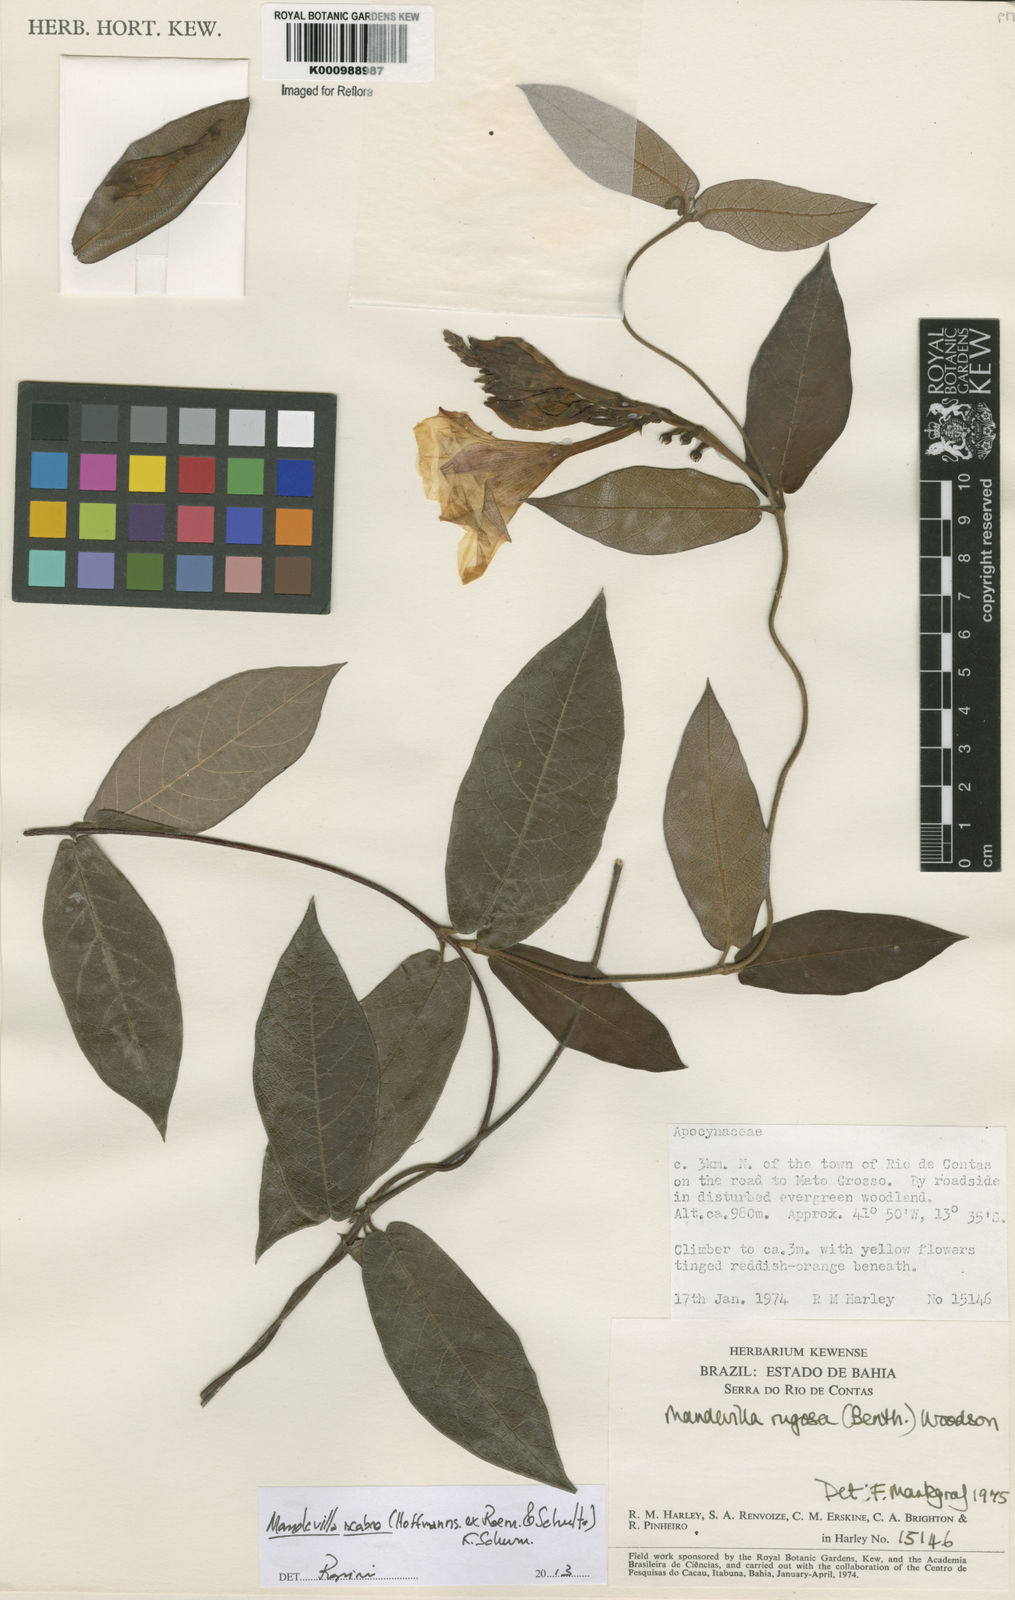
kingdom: Plantae
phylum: Tracheophyta
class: Magnoliopsida
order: Gentianales
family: Apocynaceae
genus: Mandevilla
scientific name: Mandevilla rugosa
